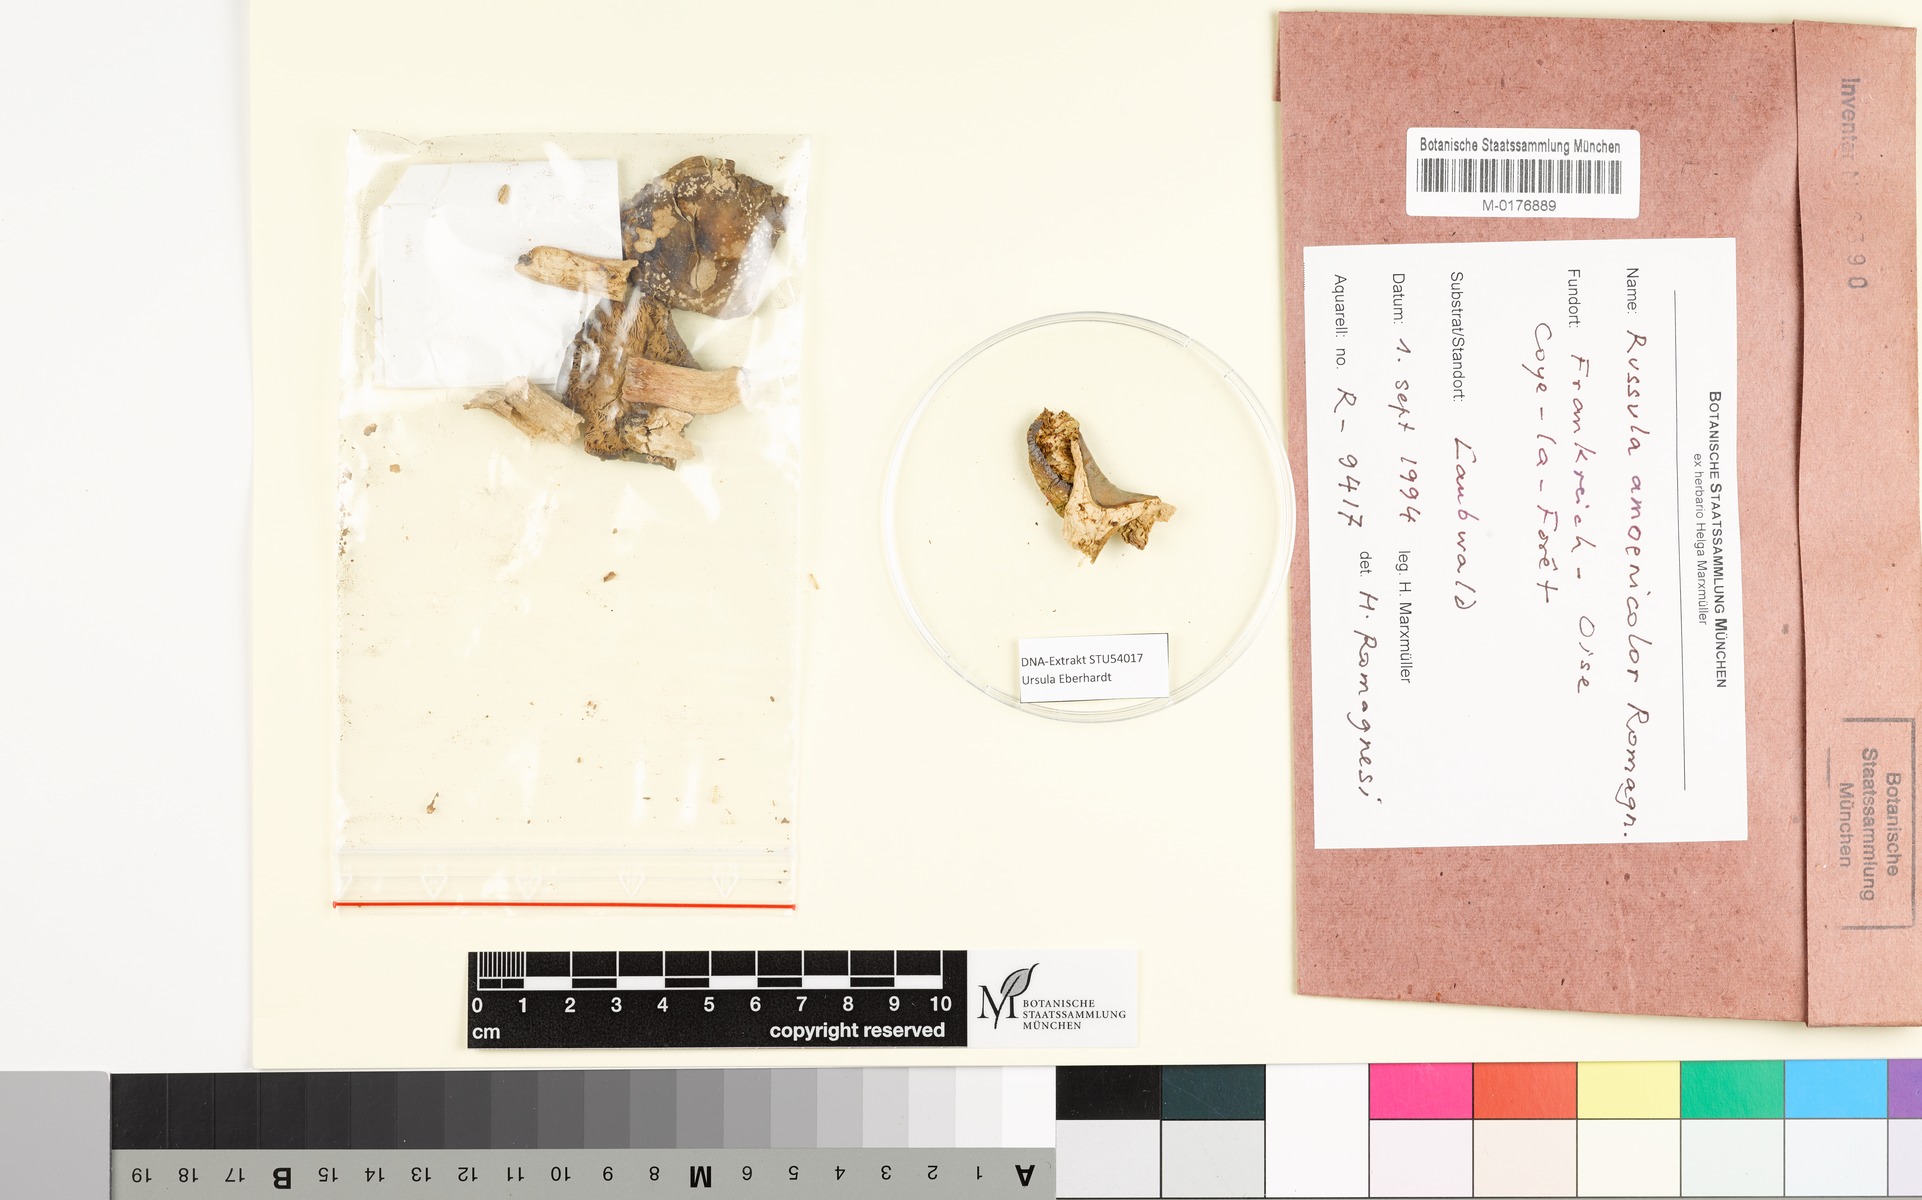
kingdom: Fungi
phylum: Basidiomycota
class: Agaricomycetes
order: Russulales
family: Russulaceae
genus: Russula
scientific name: Russula amoenicolor
